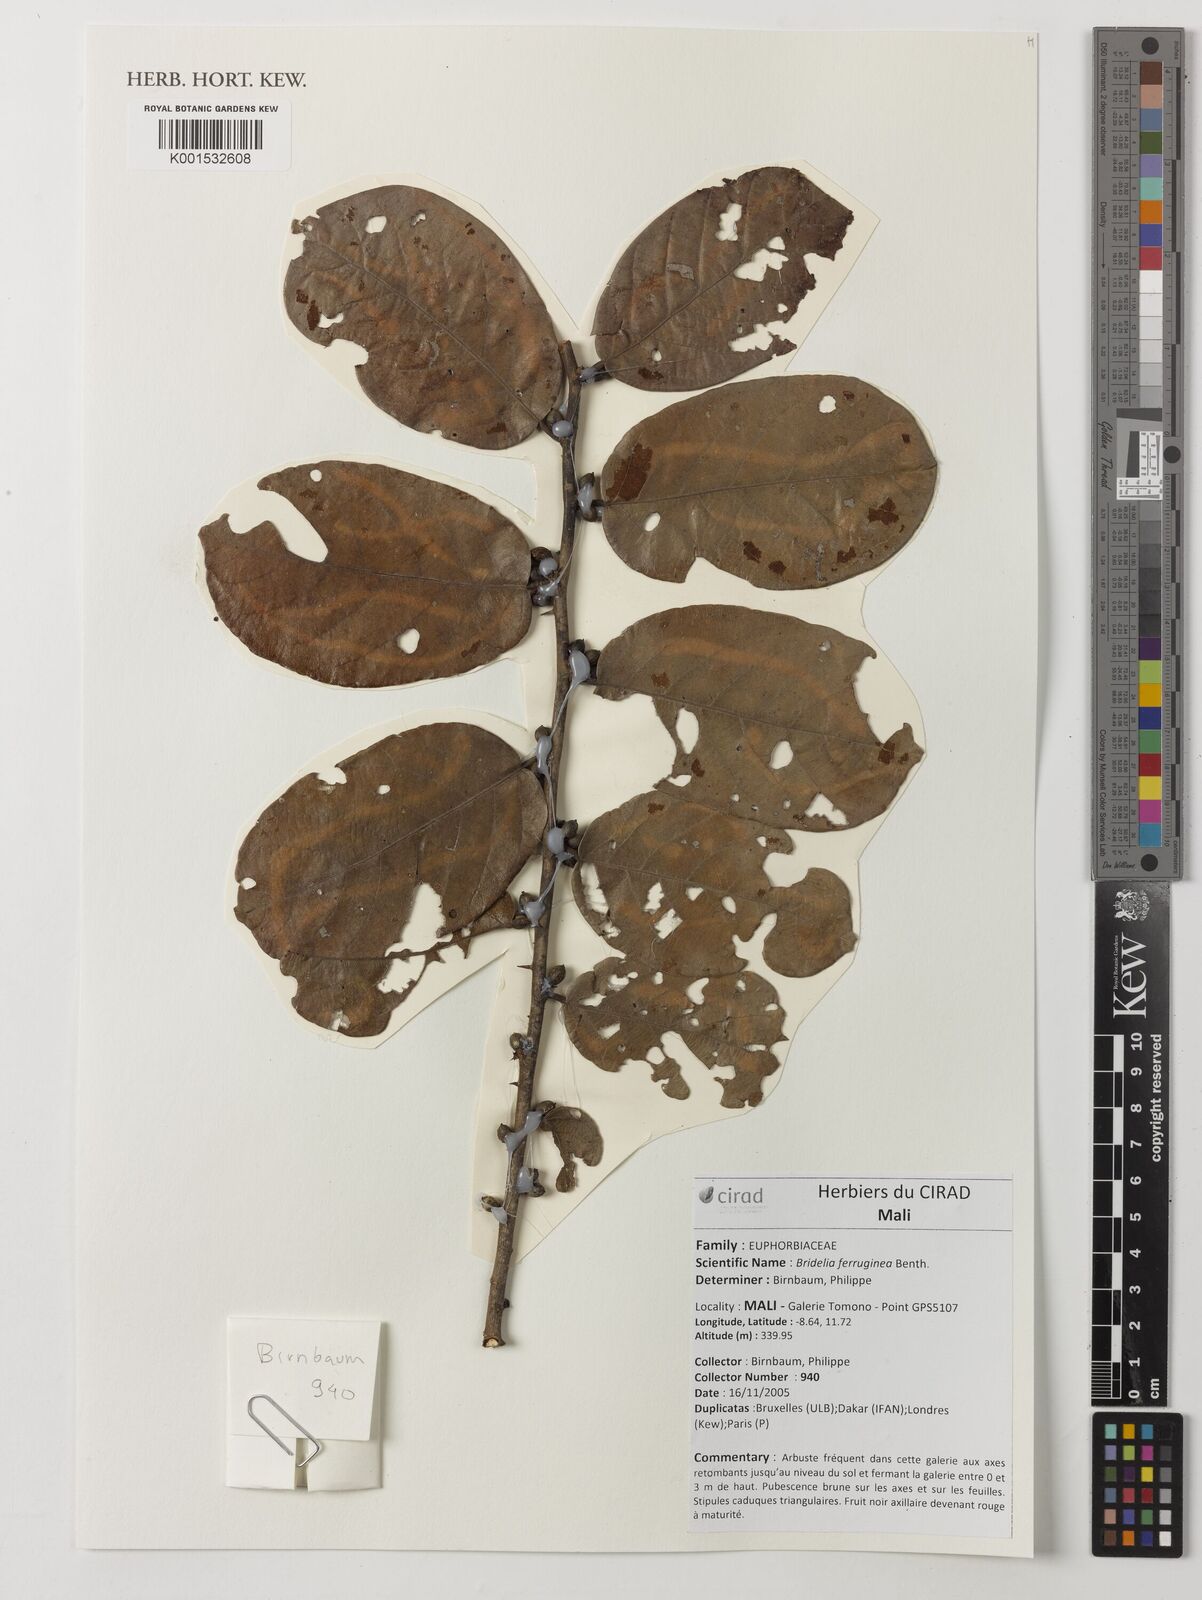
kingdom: Plantae
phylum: Tracheophyta
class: Magnoliopsida
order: Malpighiales
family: Phyllanthaceae
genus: Bridelia
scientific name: Bridelia ferruginea
